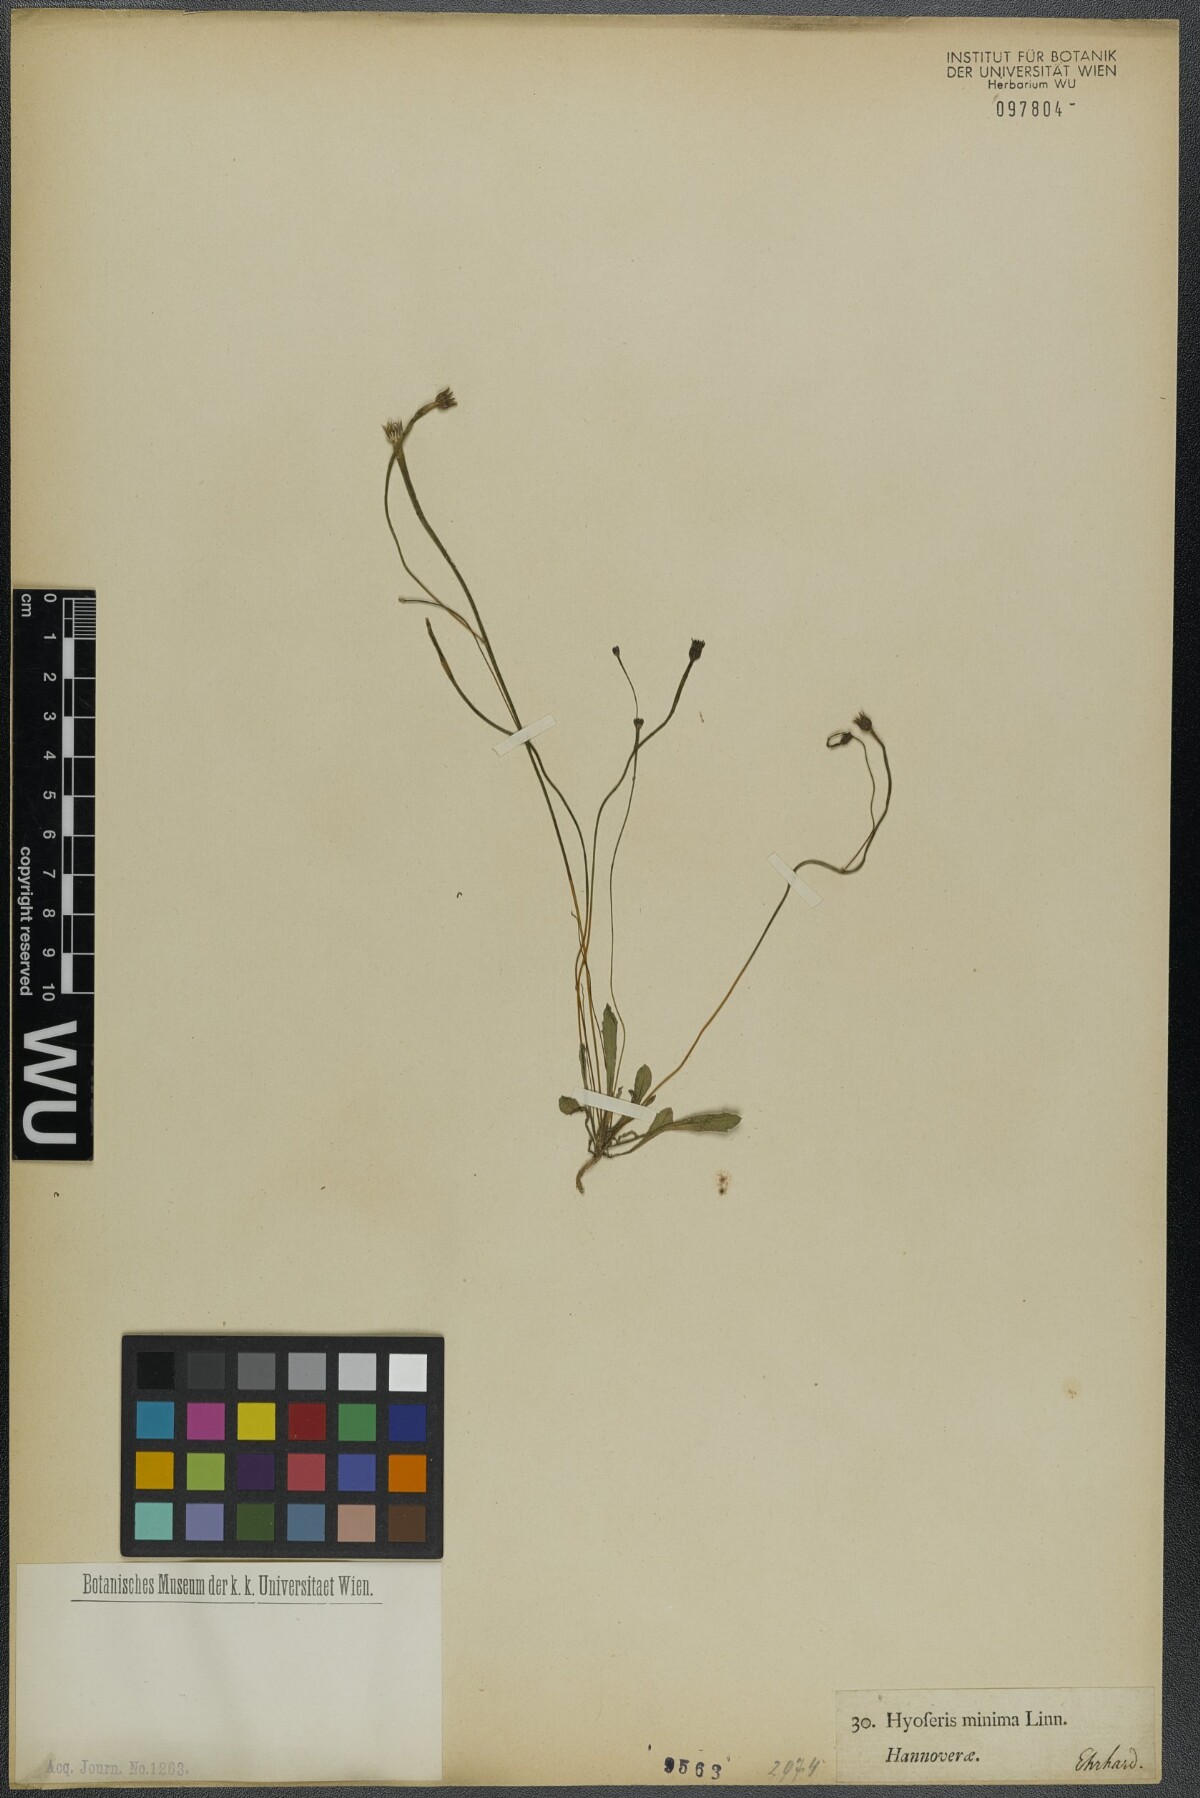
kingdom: Plantae
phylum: Tracheophyta
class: Magnoliopsida
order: Asterales
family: Asteraceae
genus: Arnoseris
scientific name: Arnoseris minima
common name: Lamb's succory
